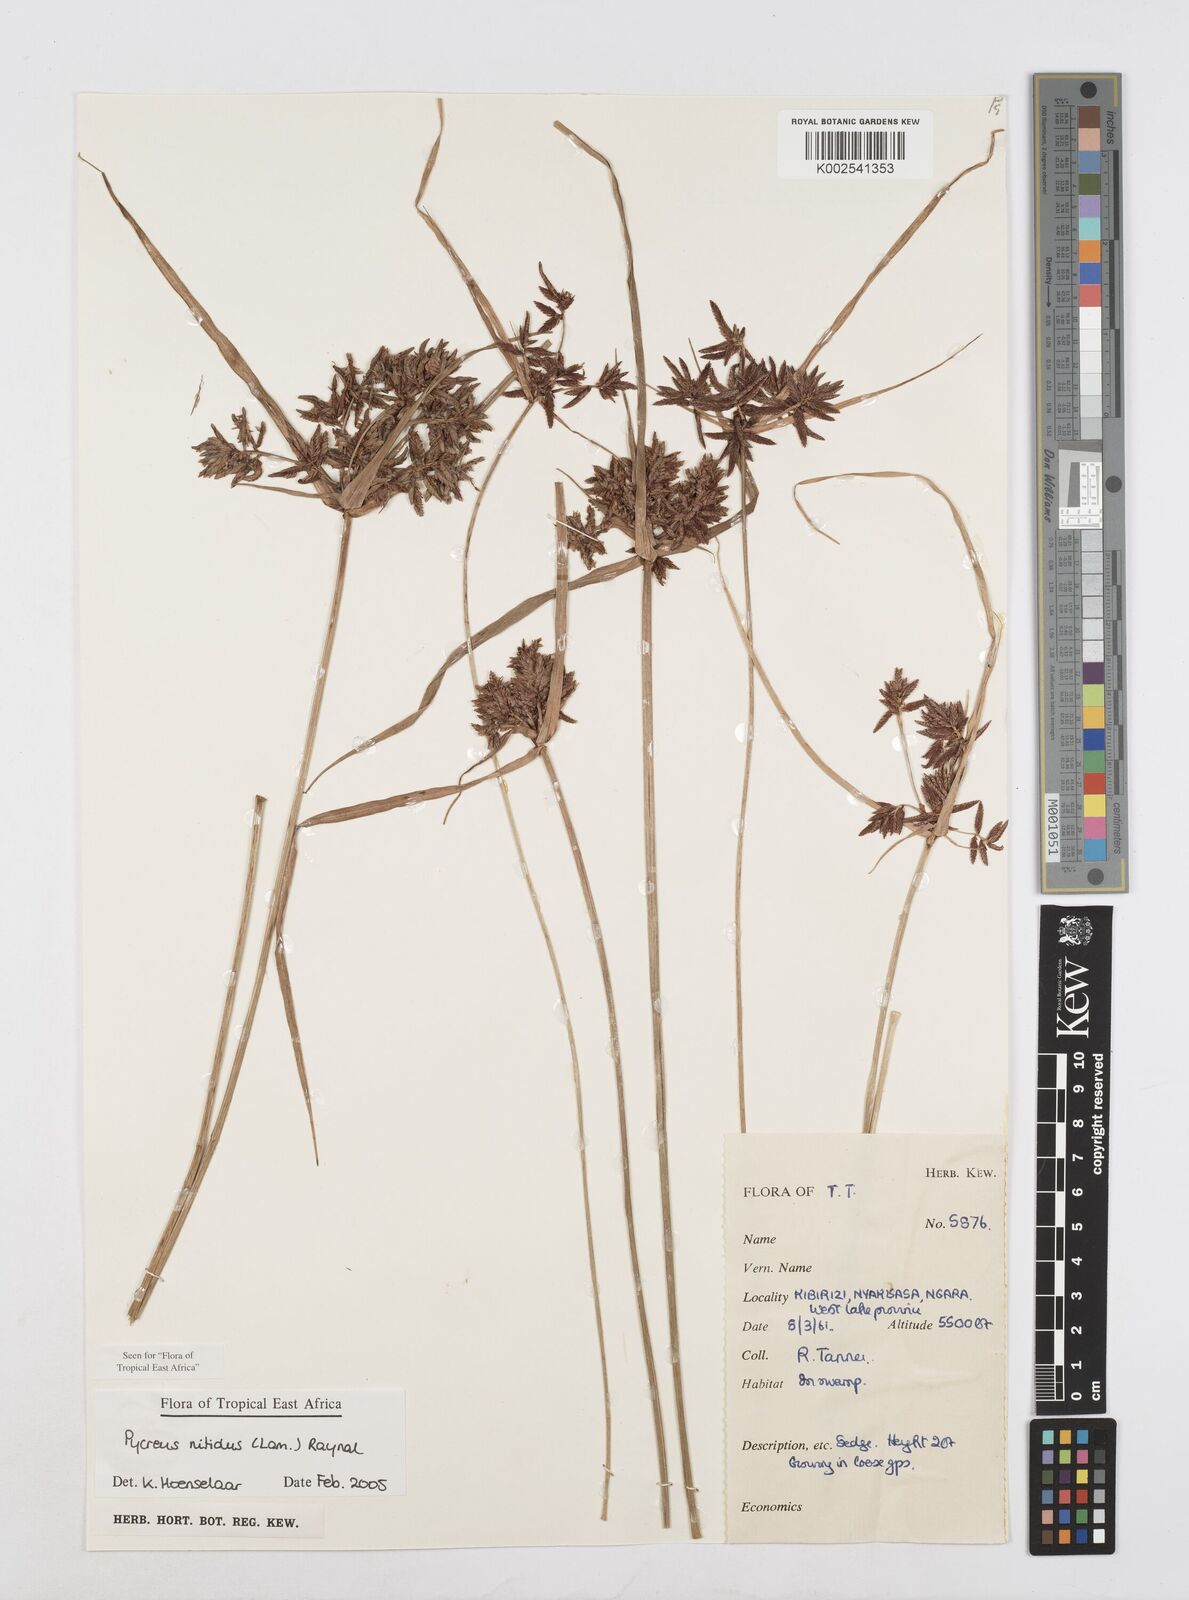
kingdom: Plantae
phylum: Tracheophyta
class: Liliopsida
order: Poales
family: Cyperaceae
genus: Cyperus
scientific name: Cyperus nitidus
